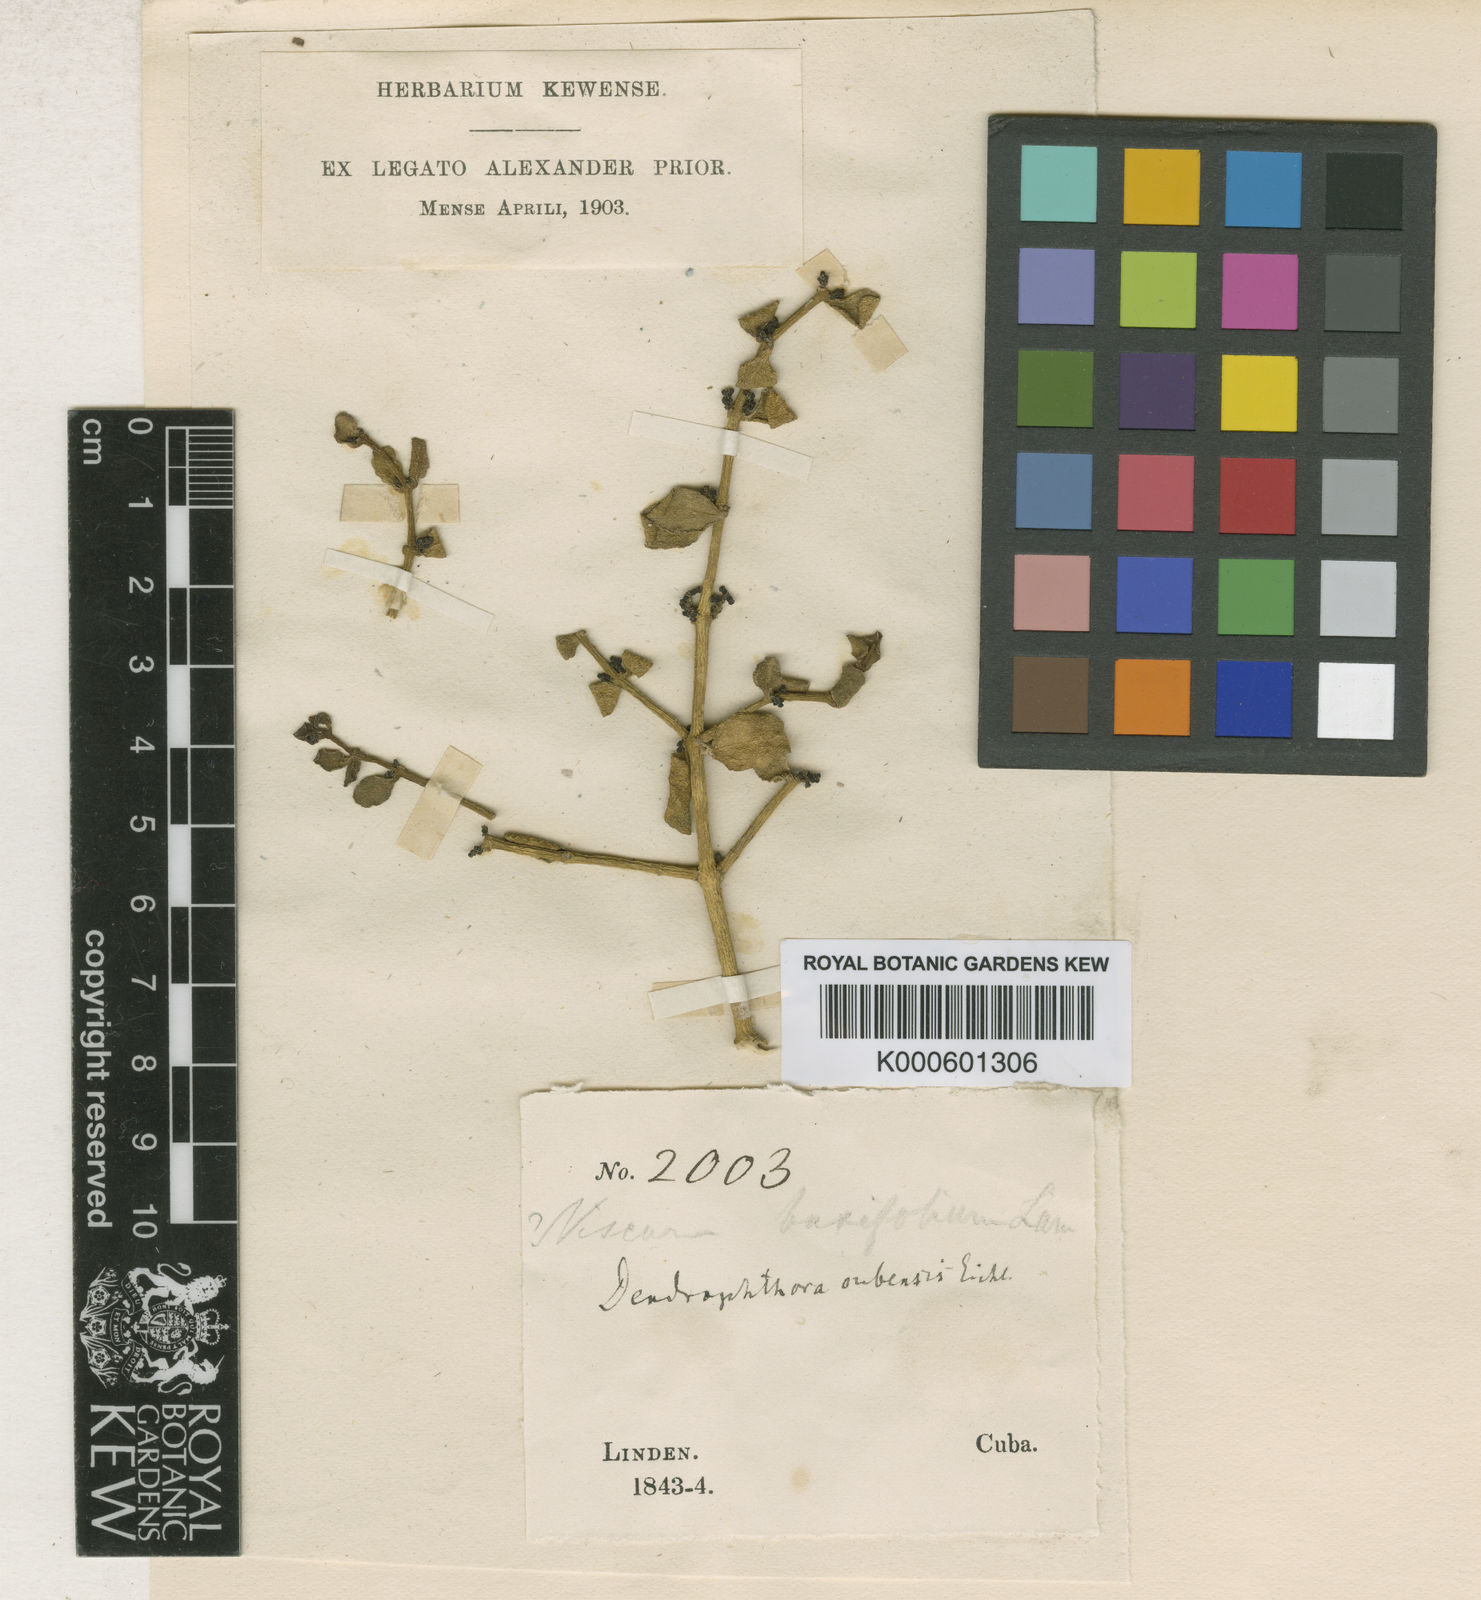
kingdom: Plantae
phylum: Tracheophyta
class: Magnoliopsida
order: Santalales
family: Viscaceae
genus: Dendrophthora
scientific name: Dendrophthora cubensis
